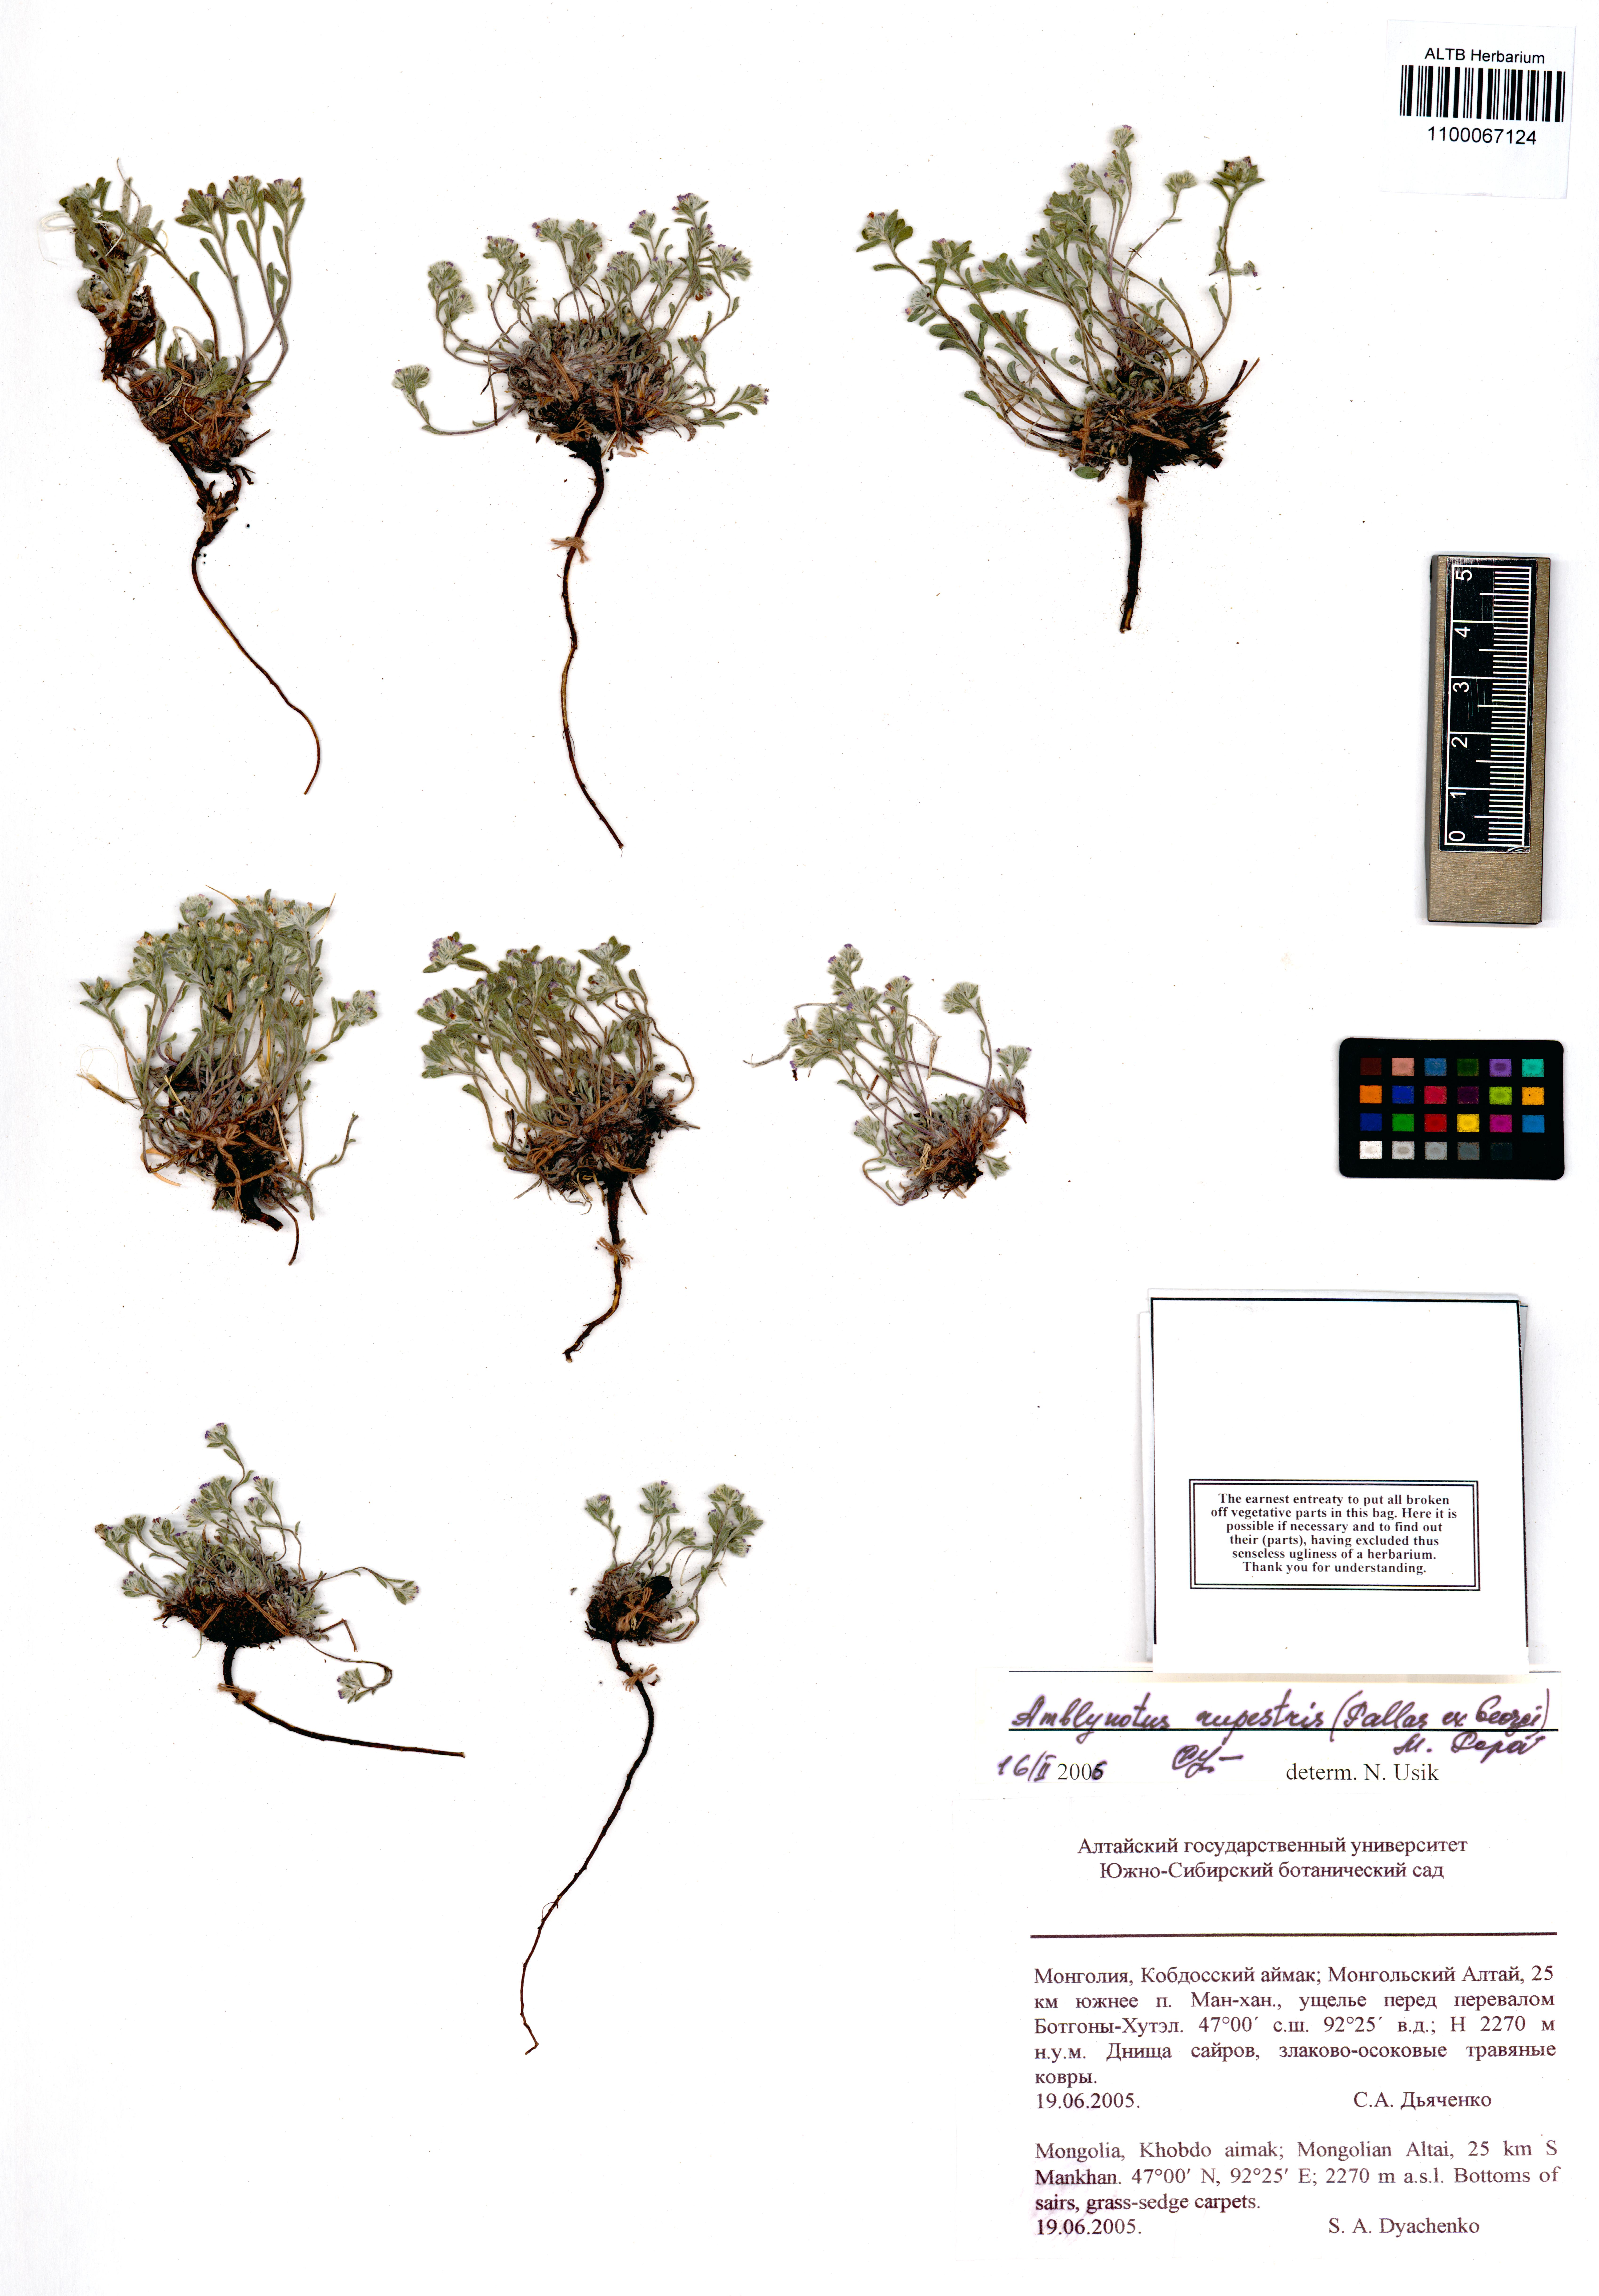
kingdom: Plantae
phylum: Tracheophyta
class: Magnoliopsida
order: Boraginales
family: Boraginaceae
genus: Eritrichium
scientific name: Eritrichium rupestre
